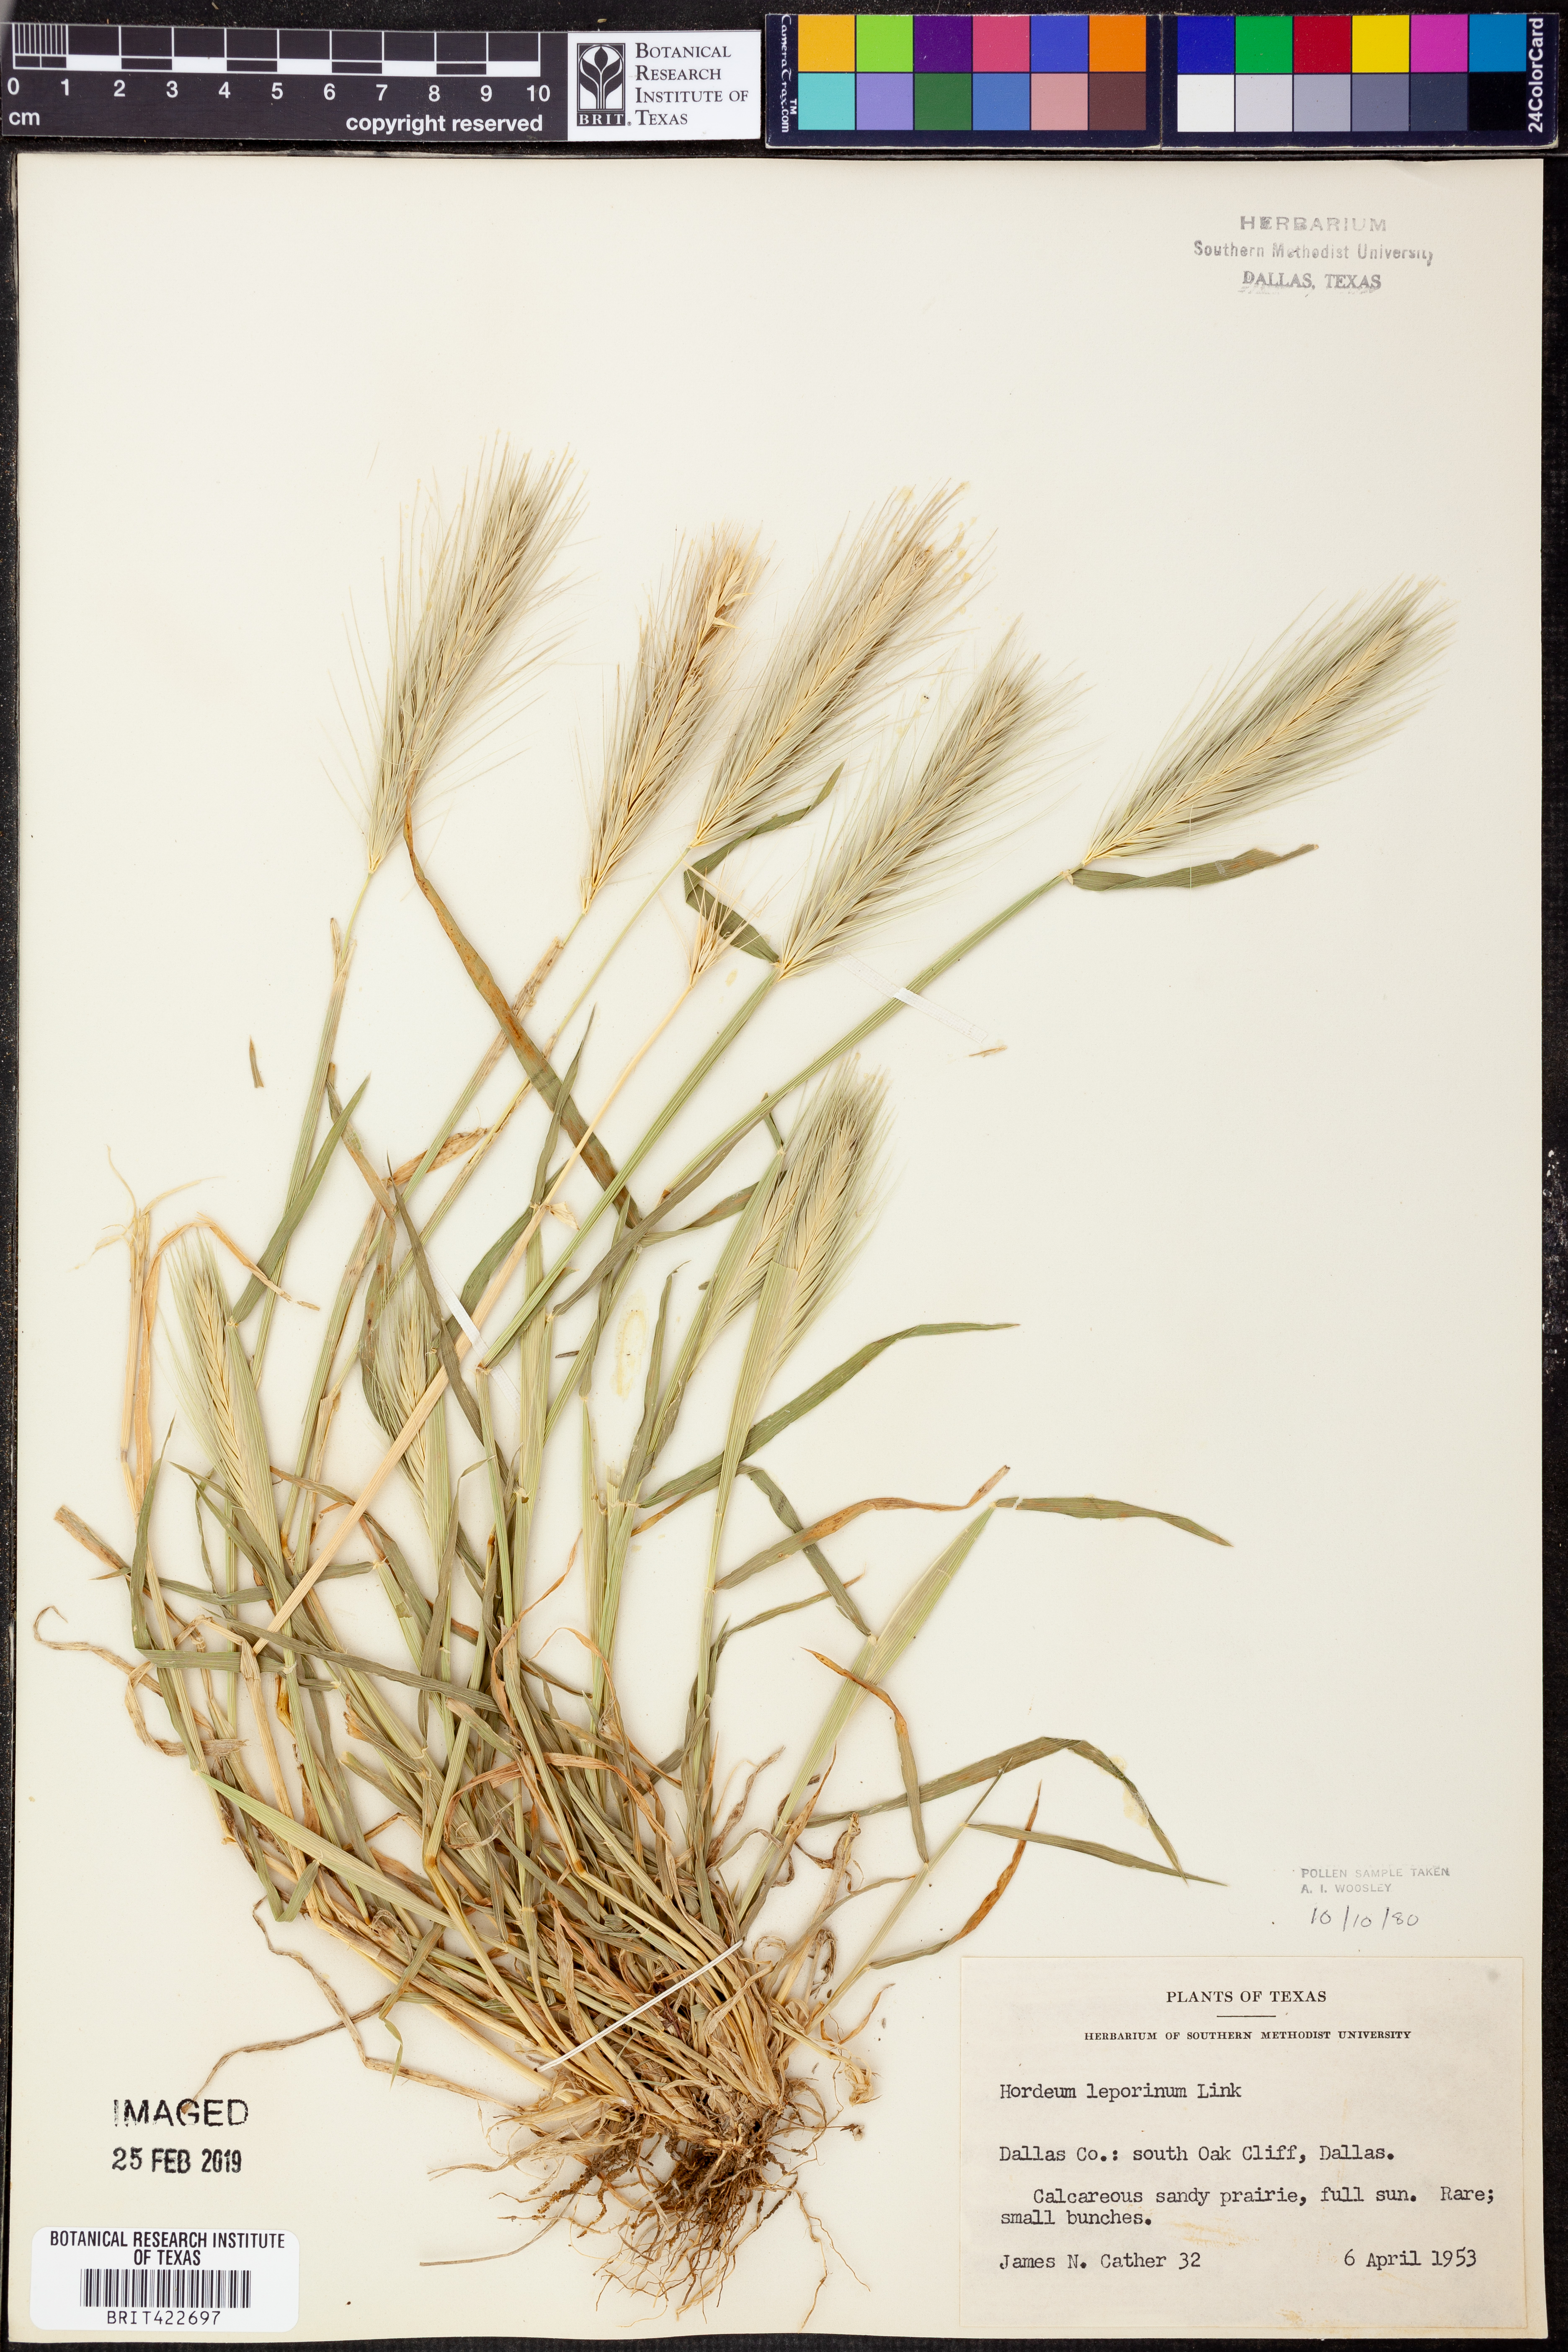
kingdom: Plantae
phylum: Tracheophyta
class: Liliopsida
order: Poales
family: Poaceae
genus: Hordeum
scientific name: Hordeum murinum
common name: Wall barley
